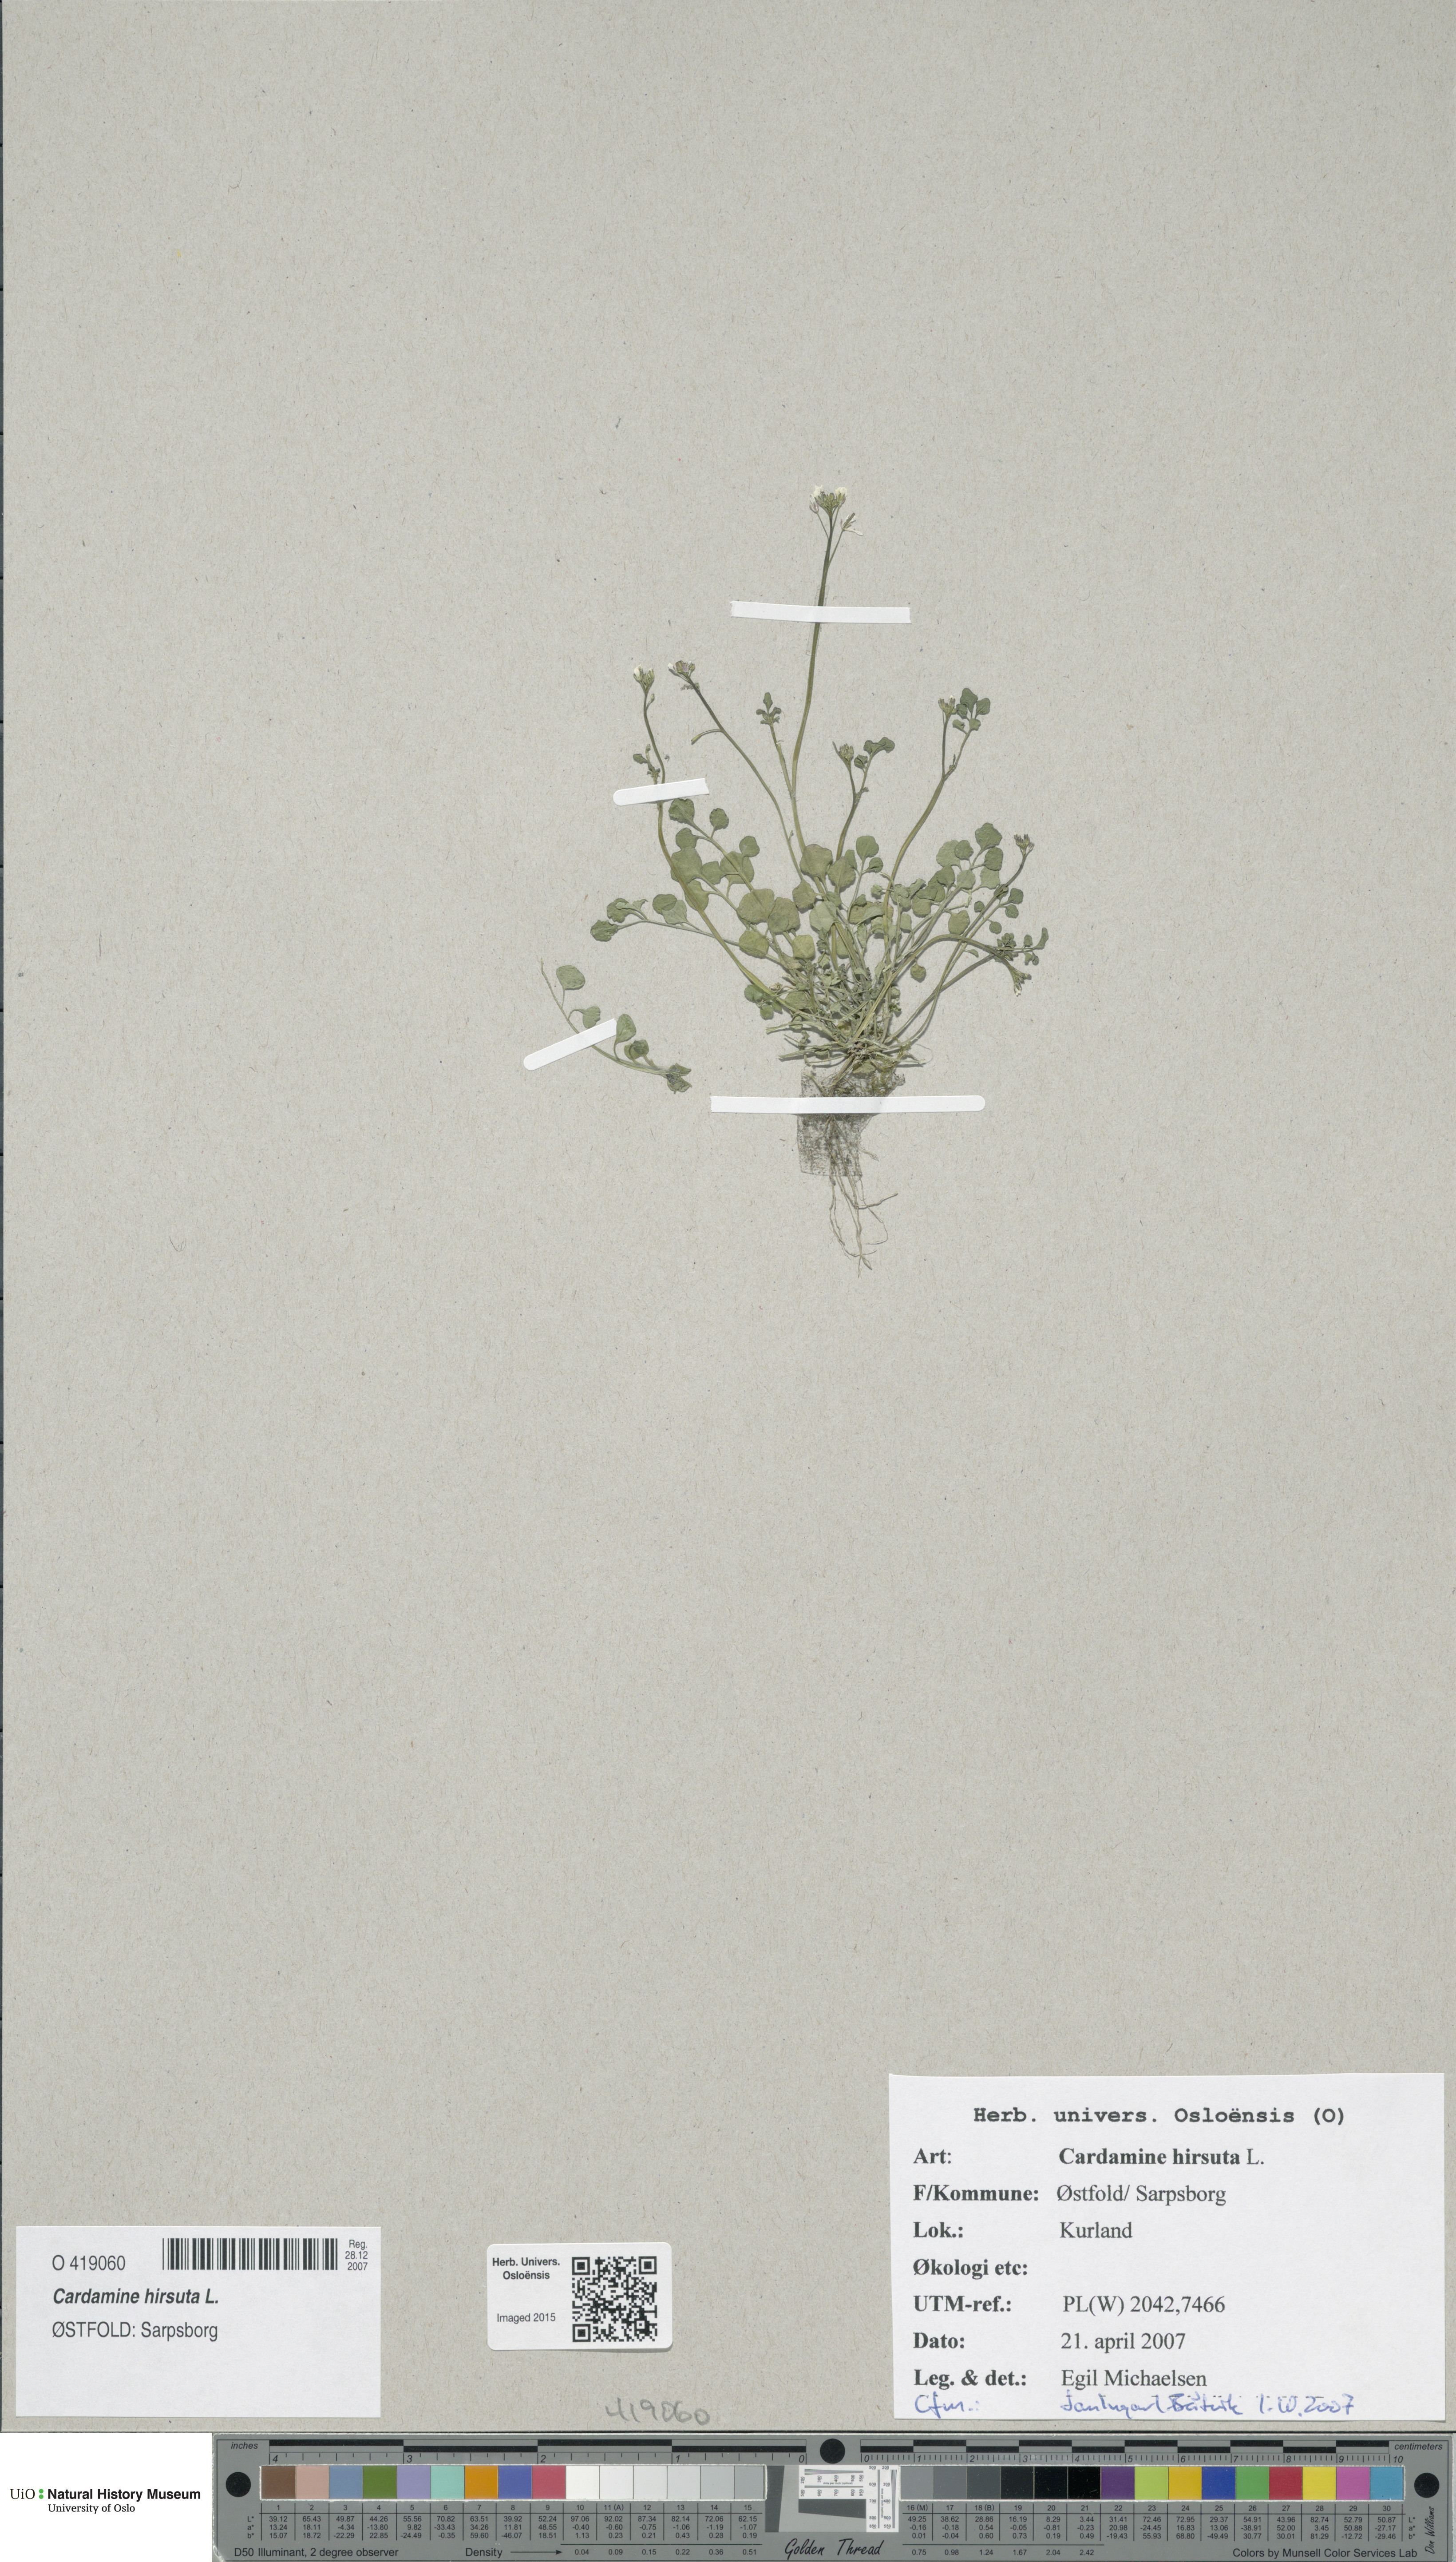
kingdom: Plantae
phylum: Tracheophyta
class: Magnoliopsida
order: Brassicales
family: Brassicaceae
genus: Cardamine
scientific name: Cardamine hirsuta
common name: Hairy bittercress
